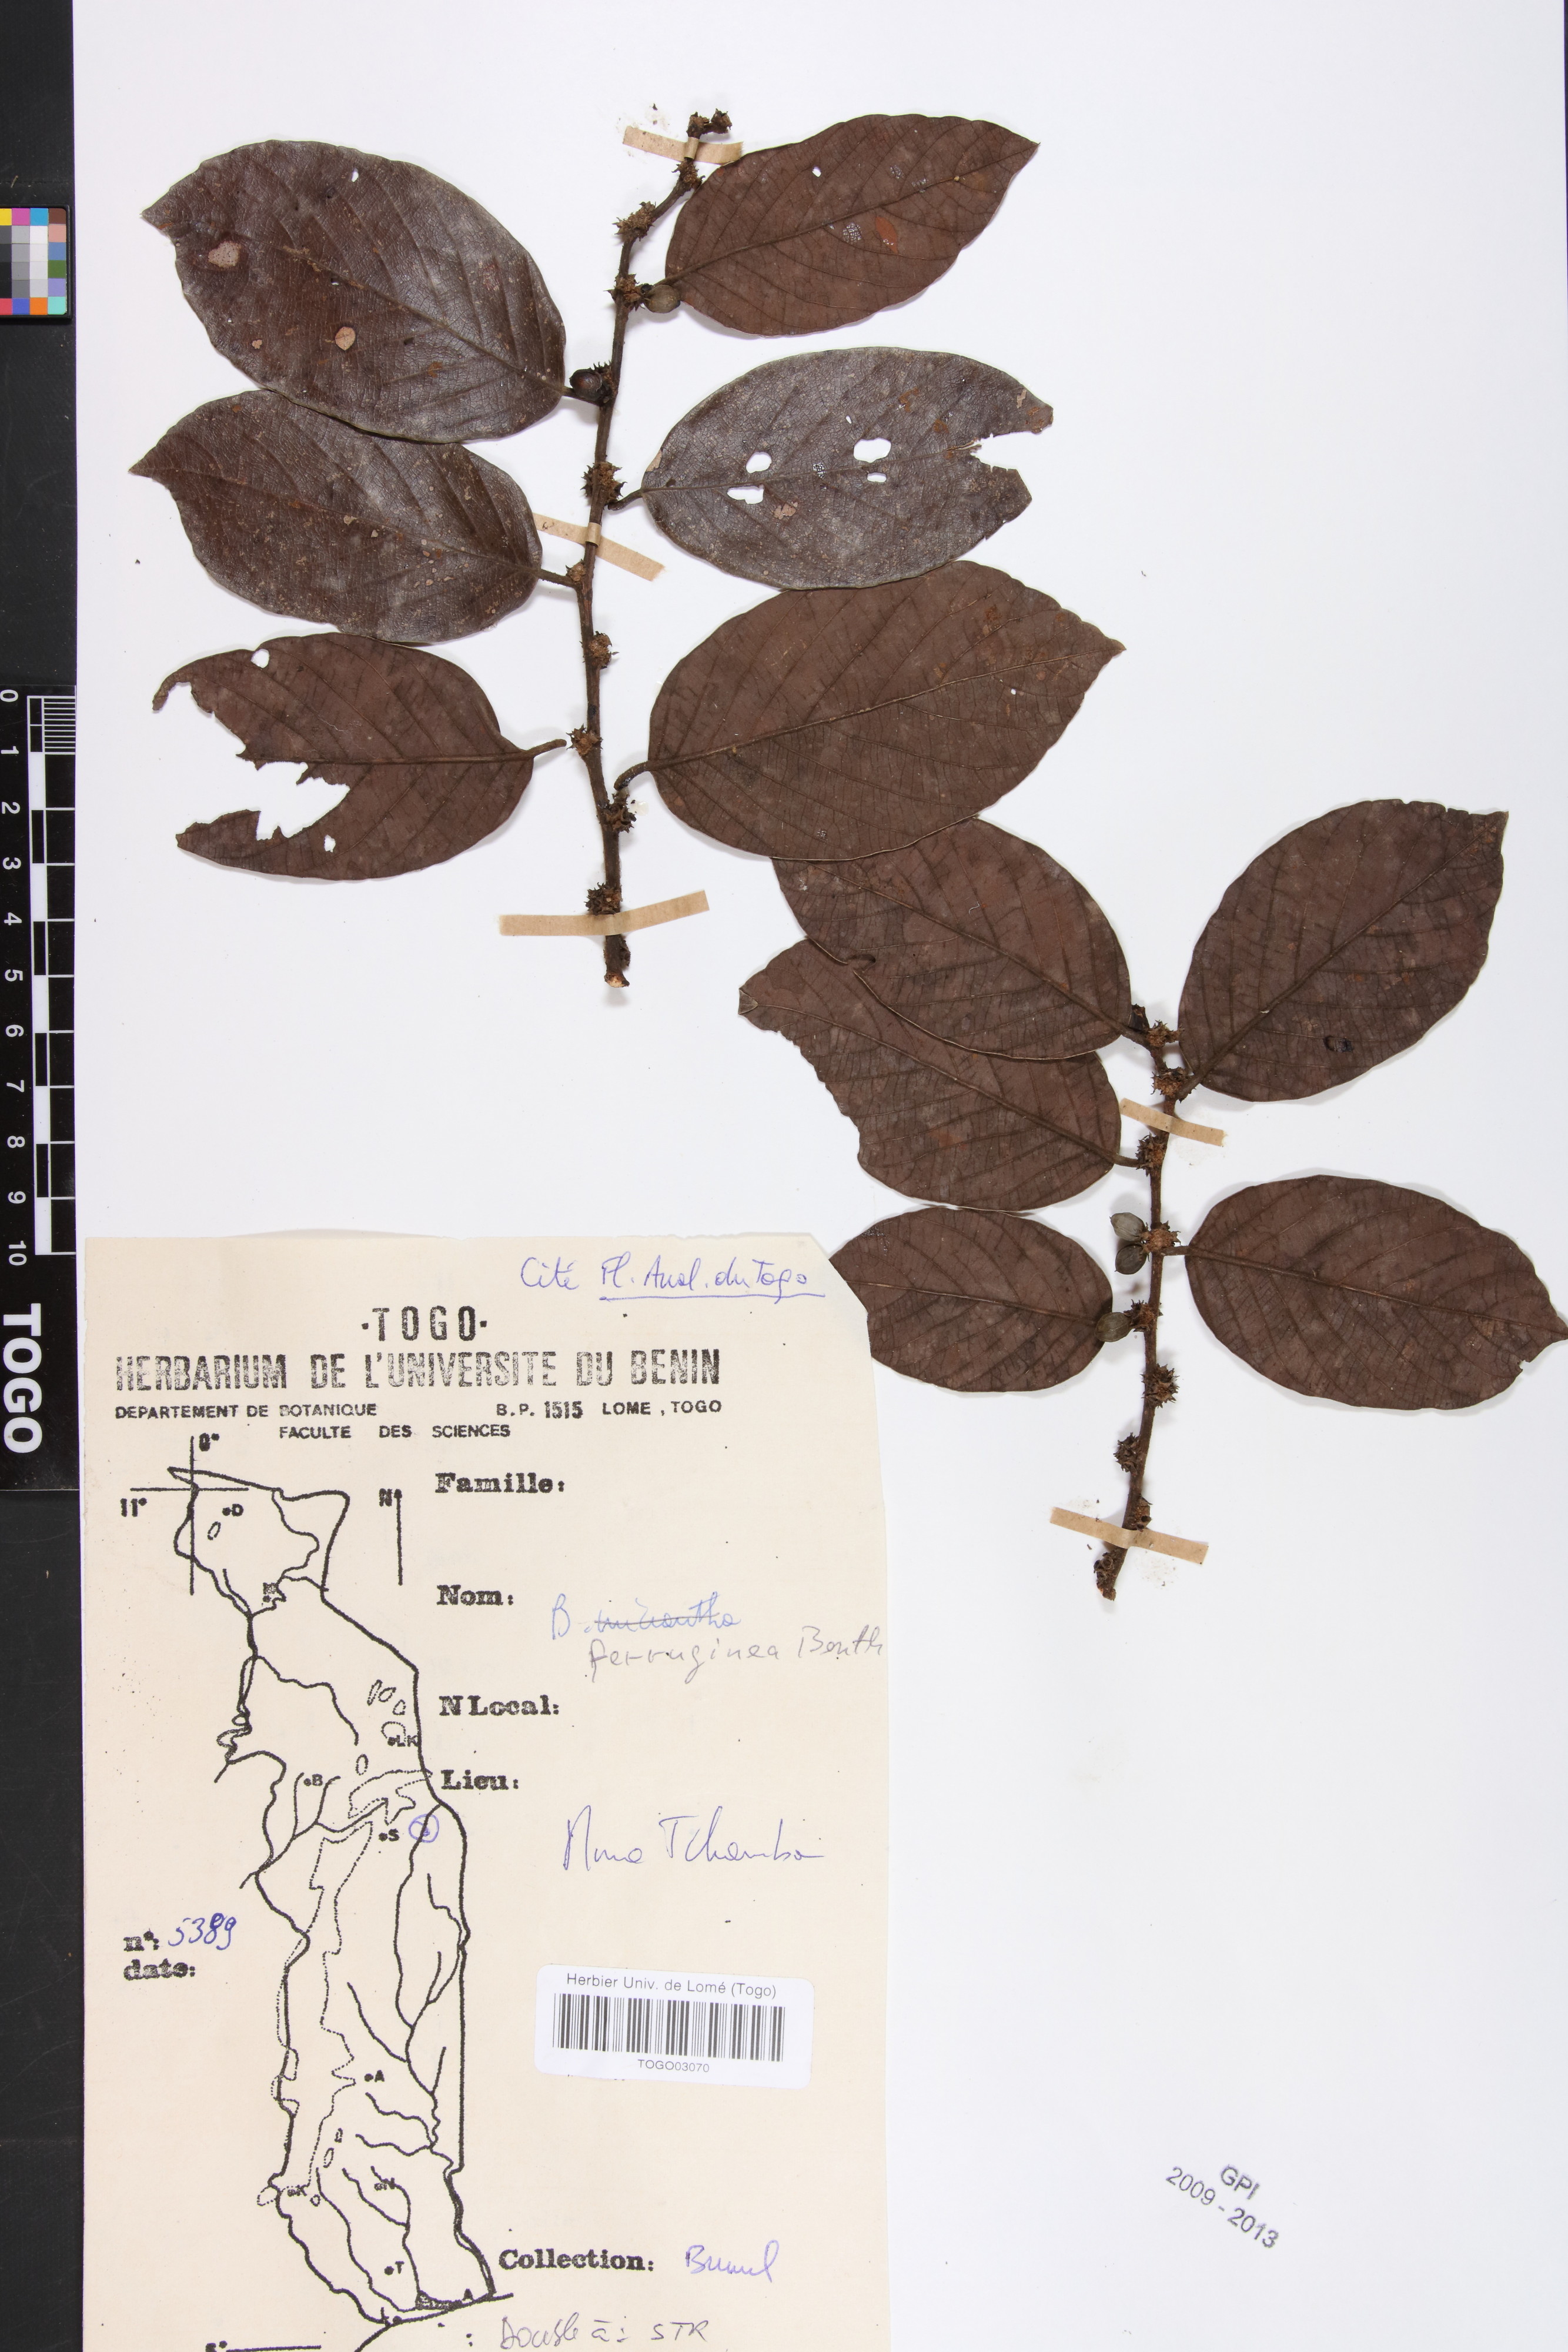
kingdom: Plantae
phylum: Tracheophyta
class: Magnoliopsida
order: Malpighiales
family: Phyllanthaceae
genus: Bridelia
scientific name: Bridelia ferruginea
